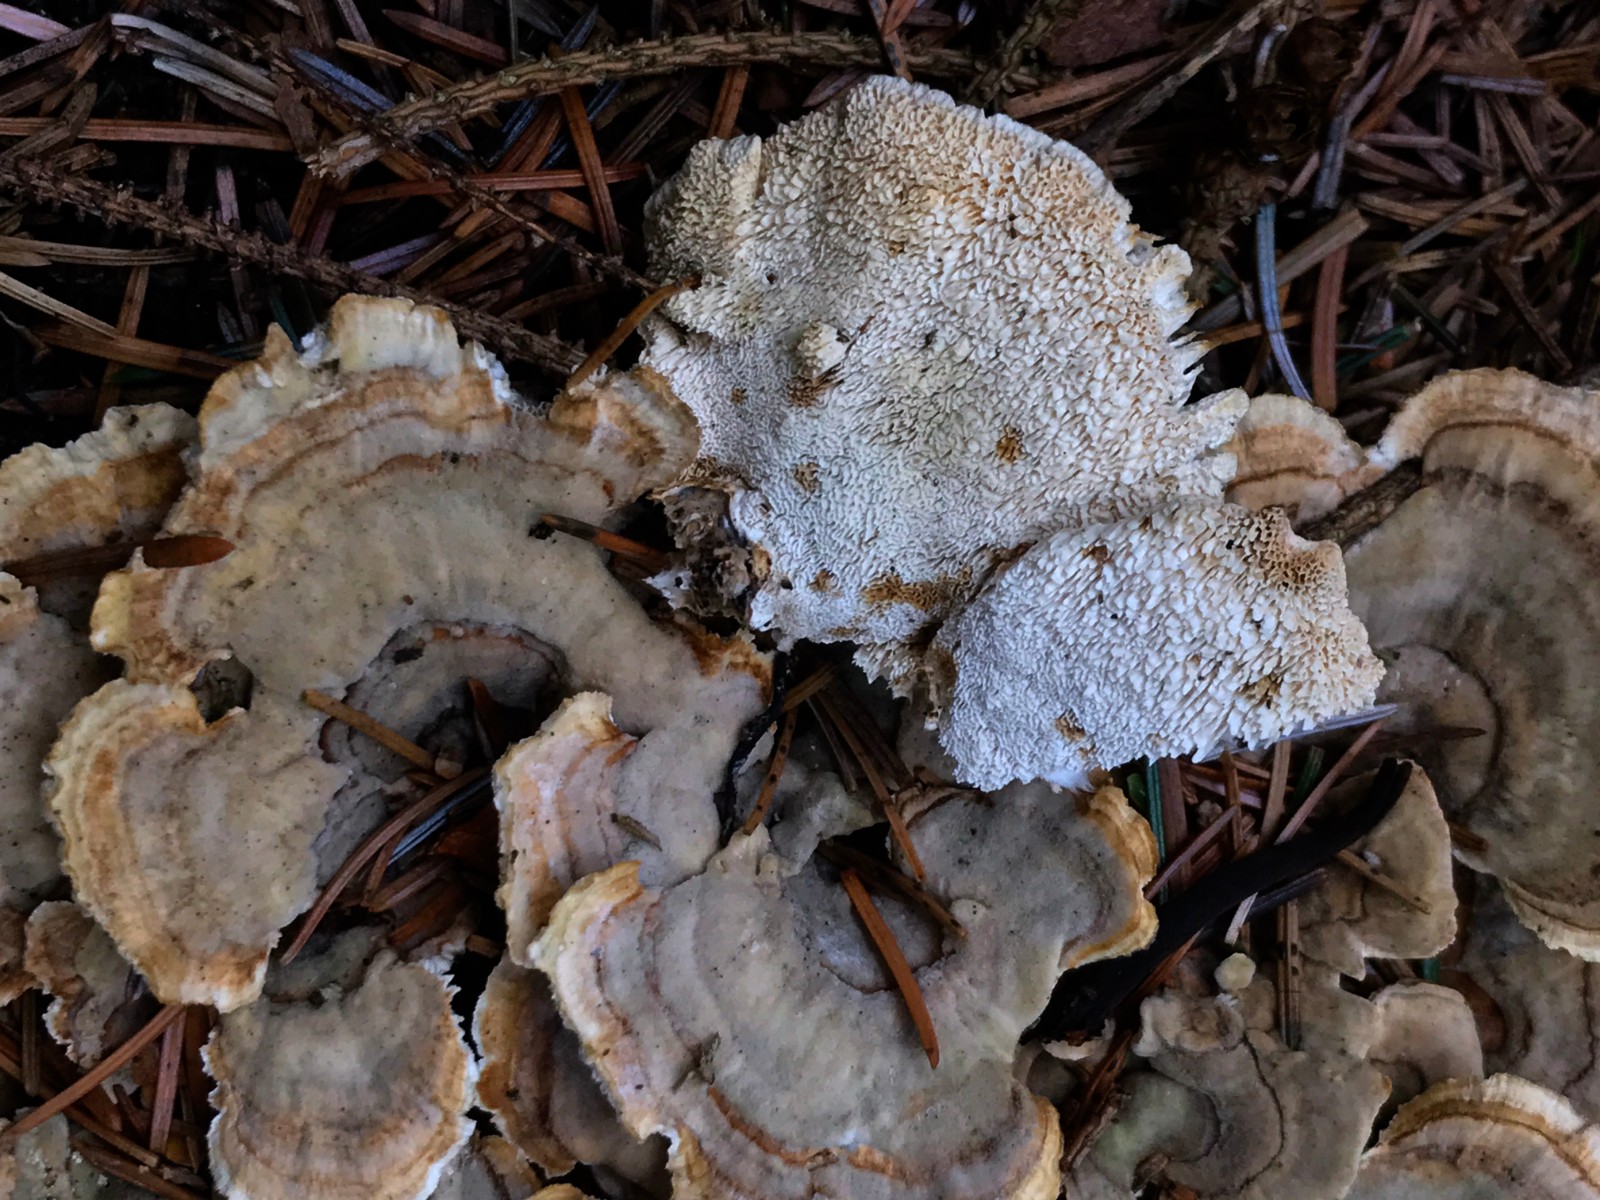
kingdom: Fungi
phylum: Basidiomycota
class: Agaricomycetes
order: Polyporales
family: Polyporaceae
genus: Trametes
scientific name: Trametes versicolor
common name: broget læderporesvamp
